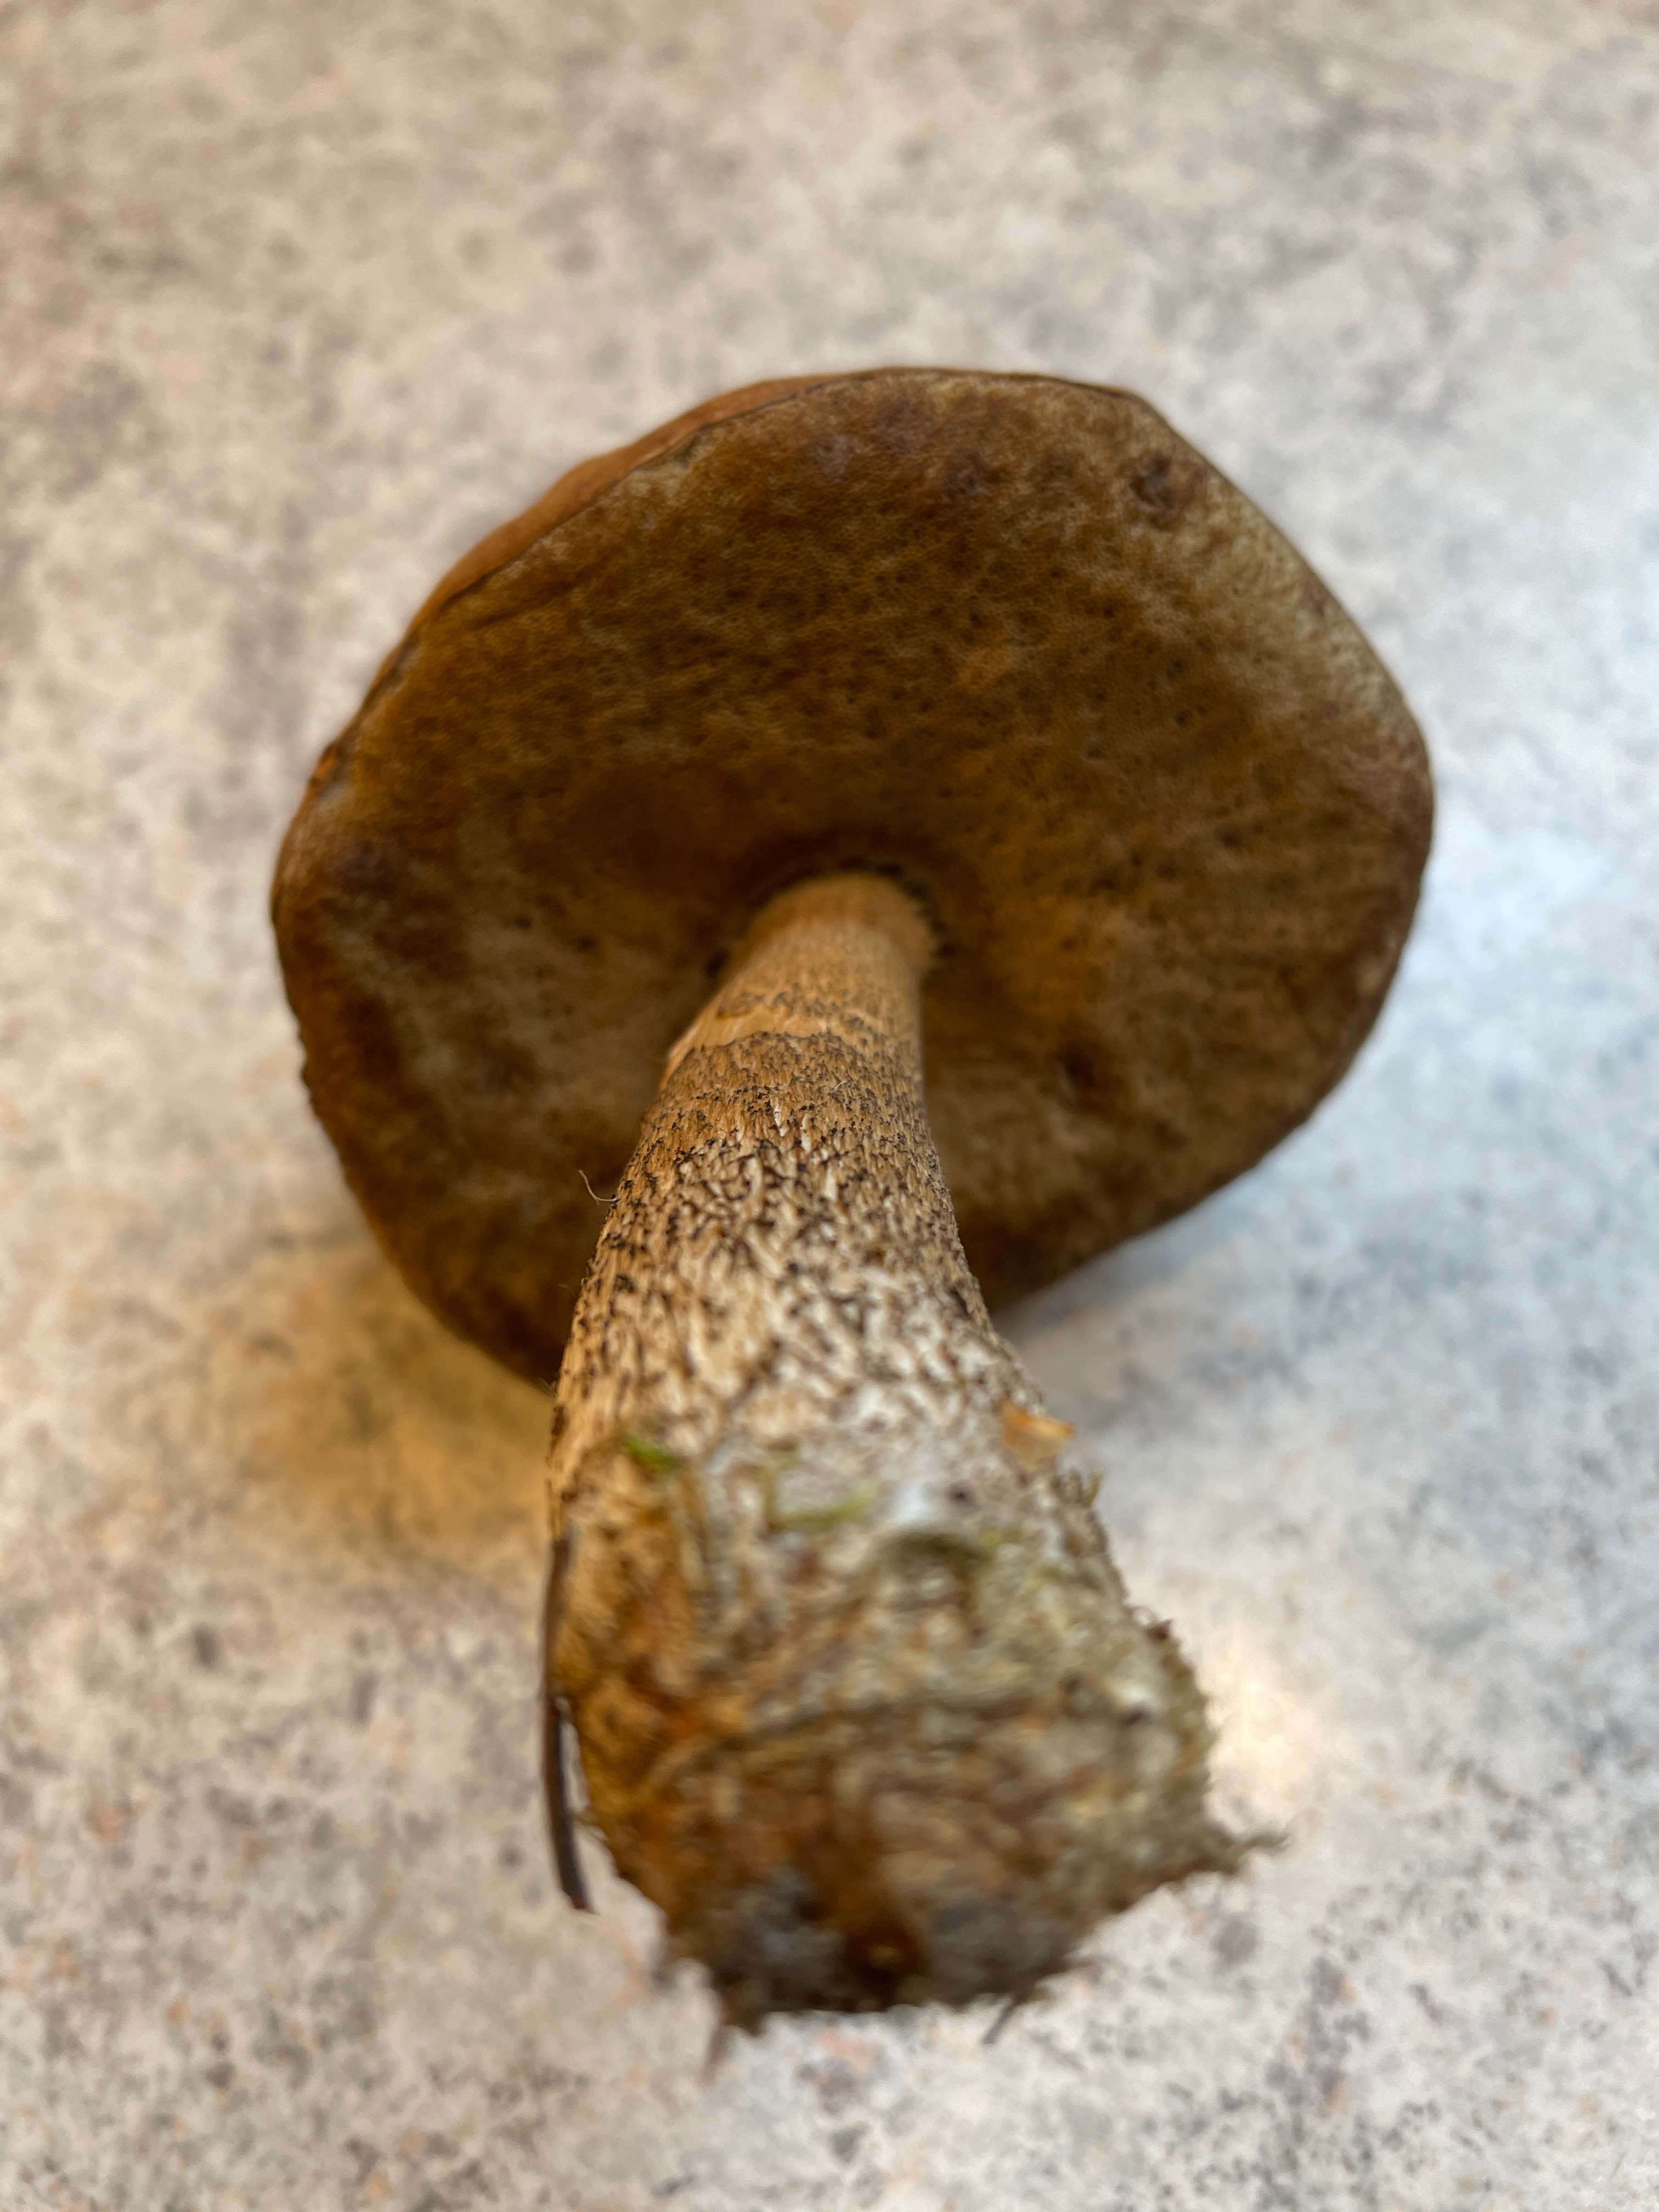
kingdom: Fungi
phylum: Basidiomycota
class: Agaricomycetes
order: Boletales
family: Boletaceae
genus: Leccinum
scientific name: Leccinum
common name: skælrørhat
